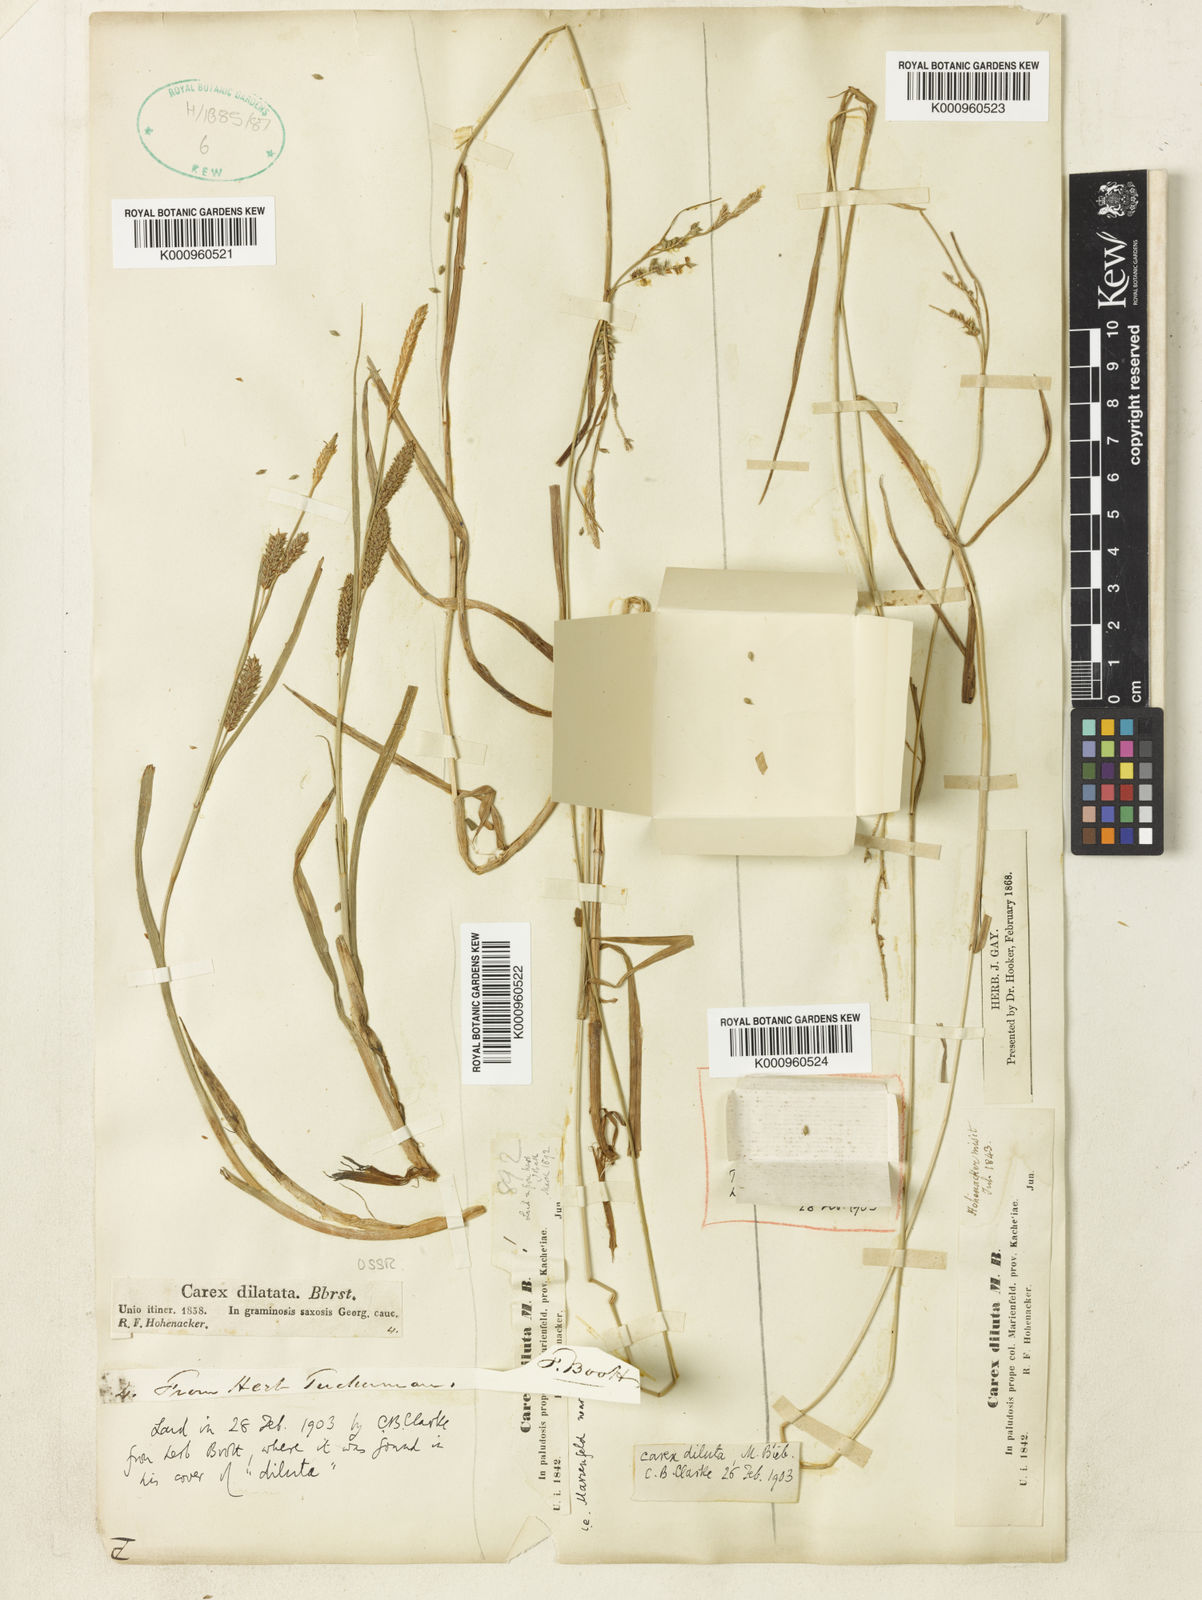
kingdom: Plantae
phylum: Tracheophyta
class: Liliopsida
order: Poales
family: Cyperaceae
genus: Carex
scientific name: Carex diluta
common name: Sedge
